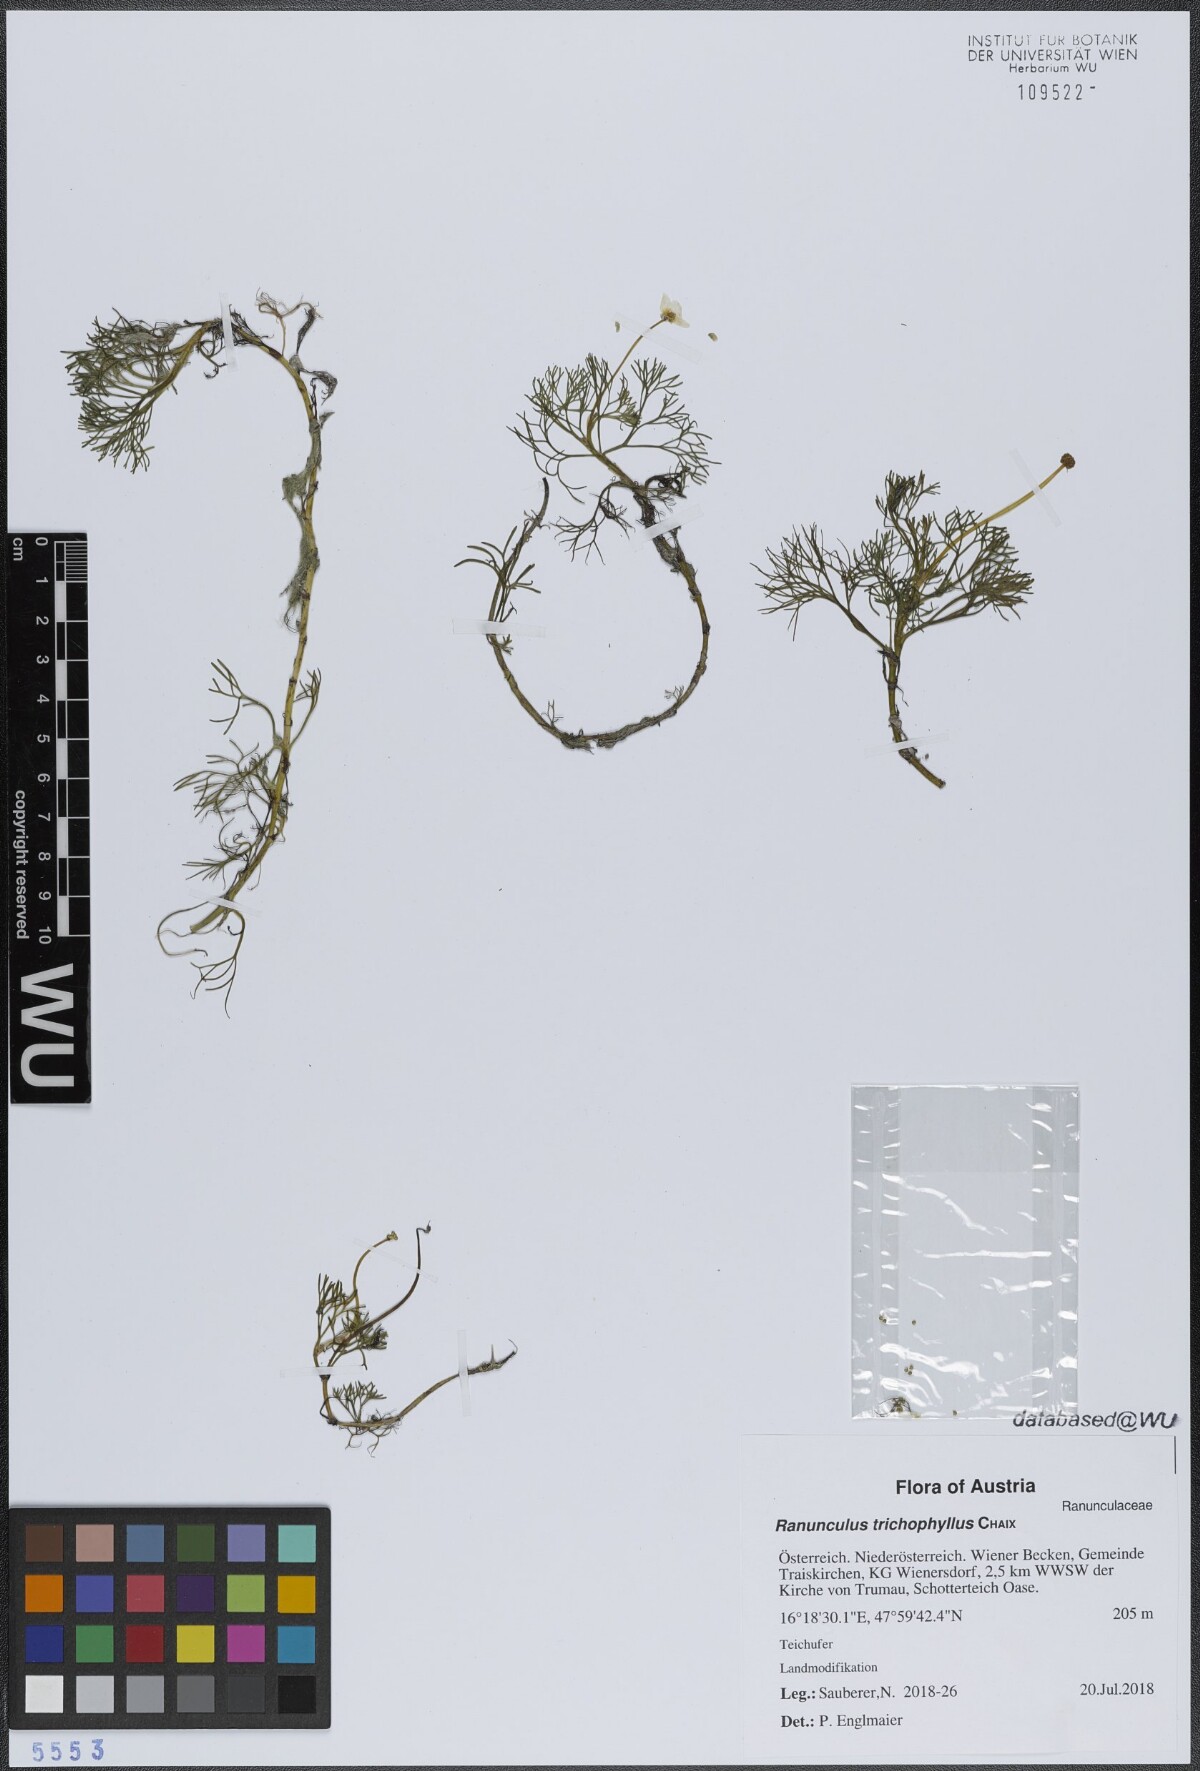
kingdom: Plantae
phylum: Tracheophyta
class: Magnoliopsida
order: Ranunculales
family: Ranunculaceae
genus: Ranunculus
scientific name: Ranunculus trichophyllus
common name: Thread-leaved water-crowfoot
